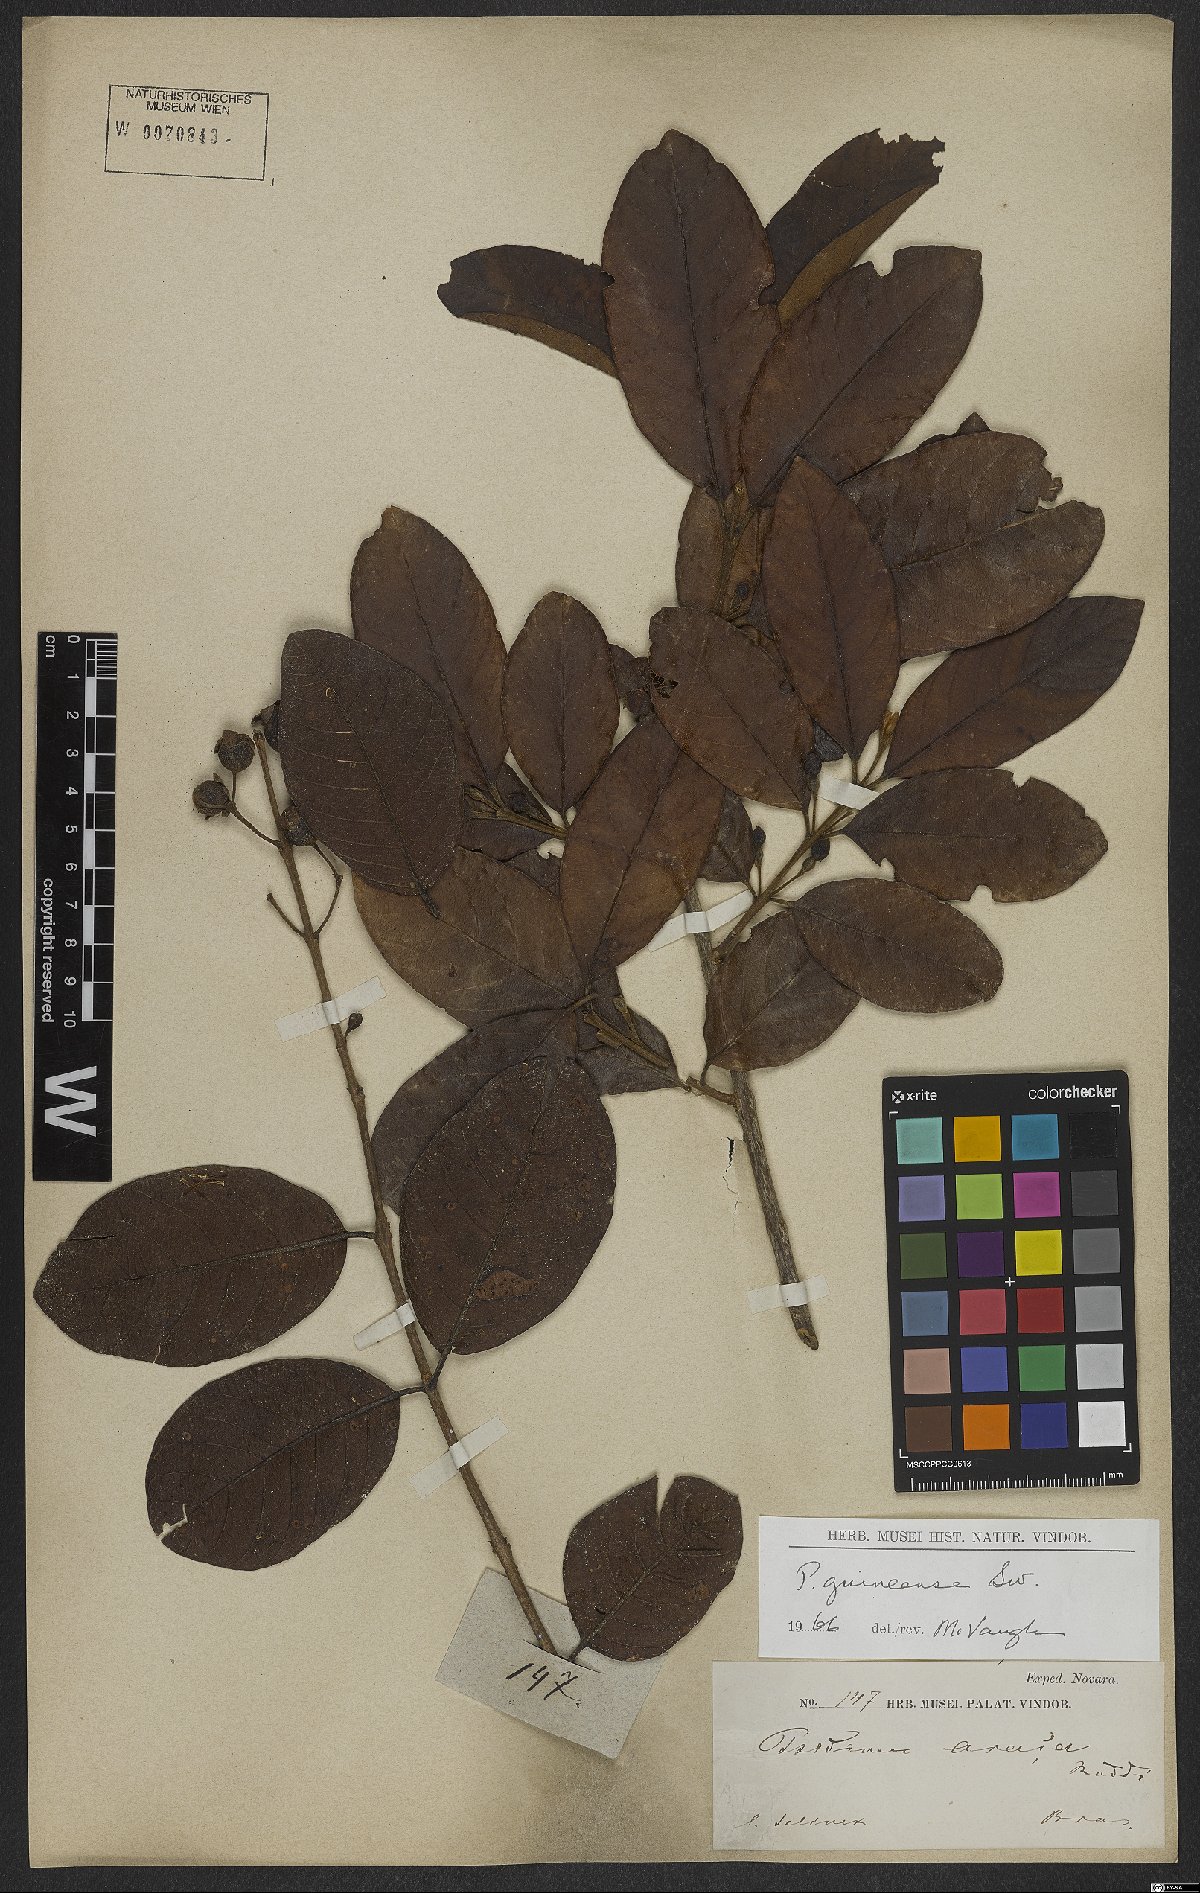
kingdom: Plantae
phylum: Tracheophyta
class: Magnoliopsida
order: Myrtales
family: Myrtaceae
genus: Psidium
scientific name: Psidium guineense
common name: Brazilian guava
